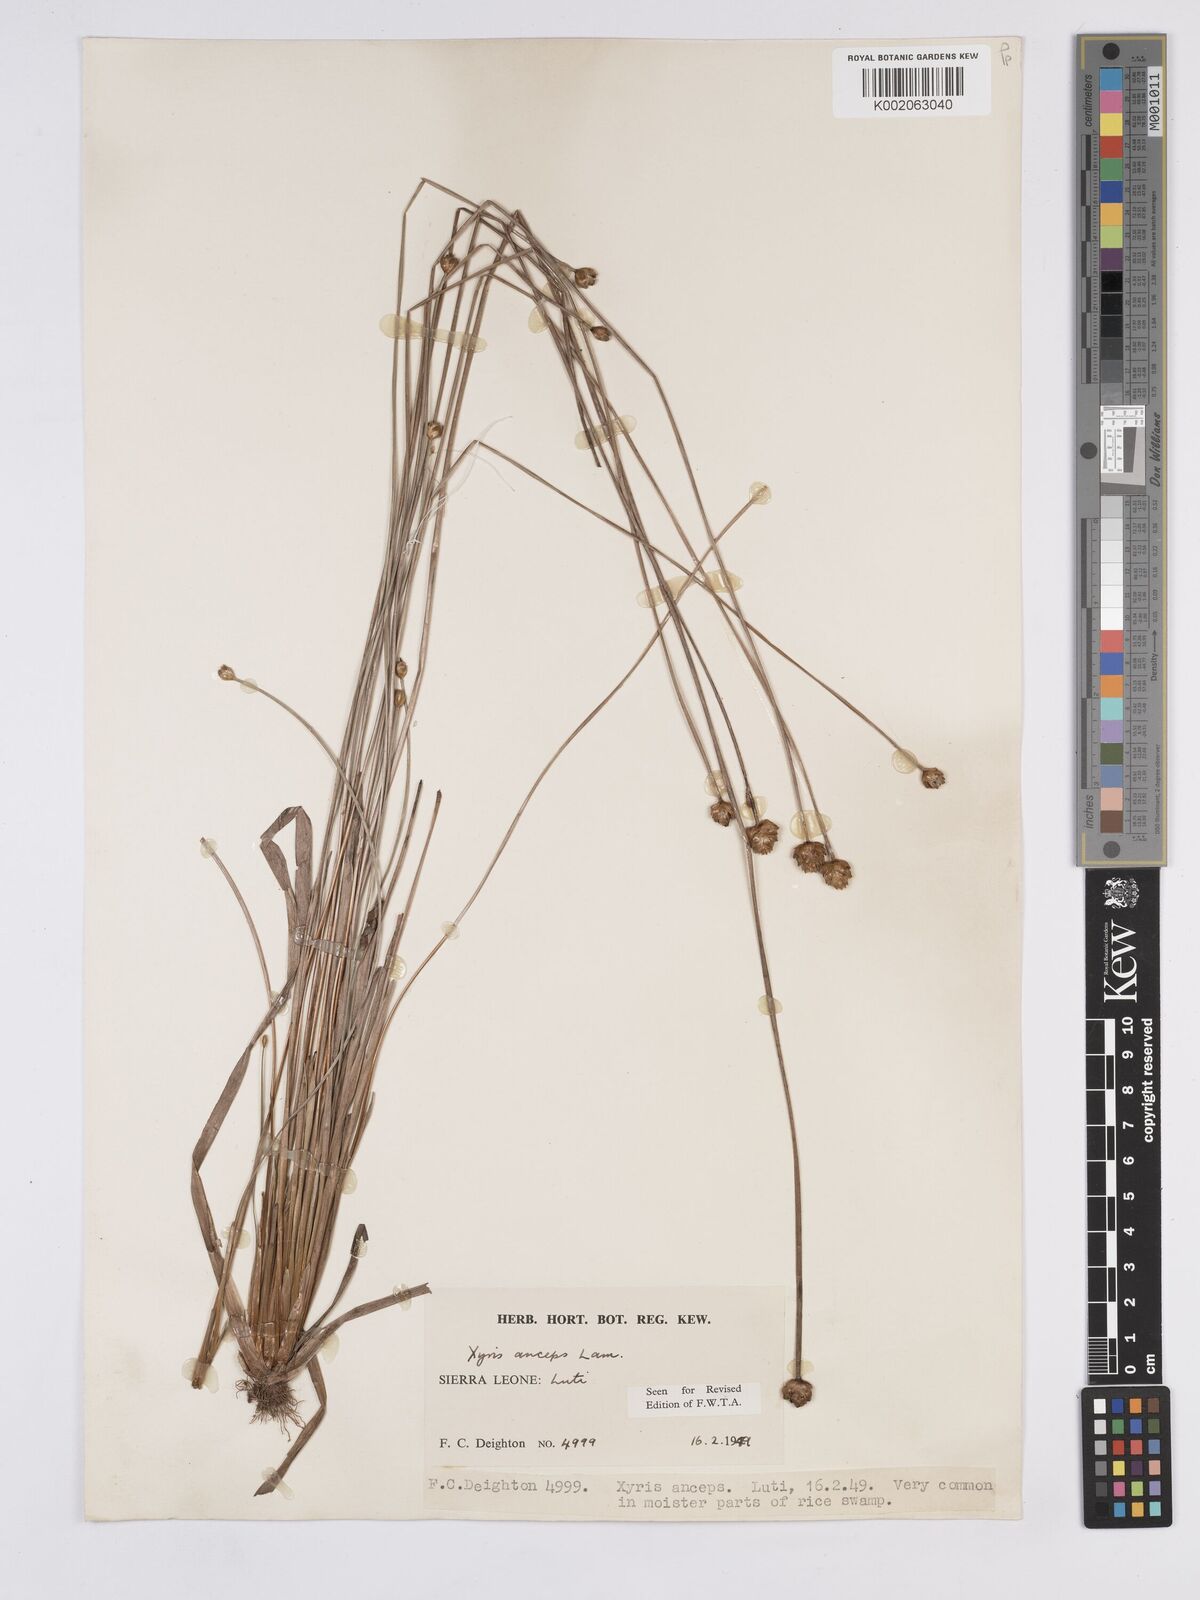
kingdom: Plantae
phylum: Tracheophyta
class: Liliopsida
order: Poales
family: Xyridaceae
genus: Xyris
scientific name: Xyris anceps
